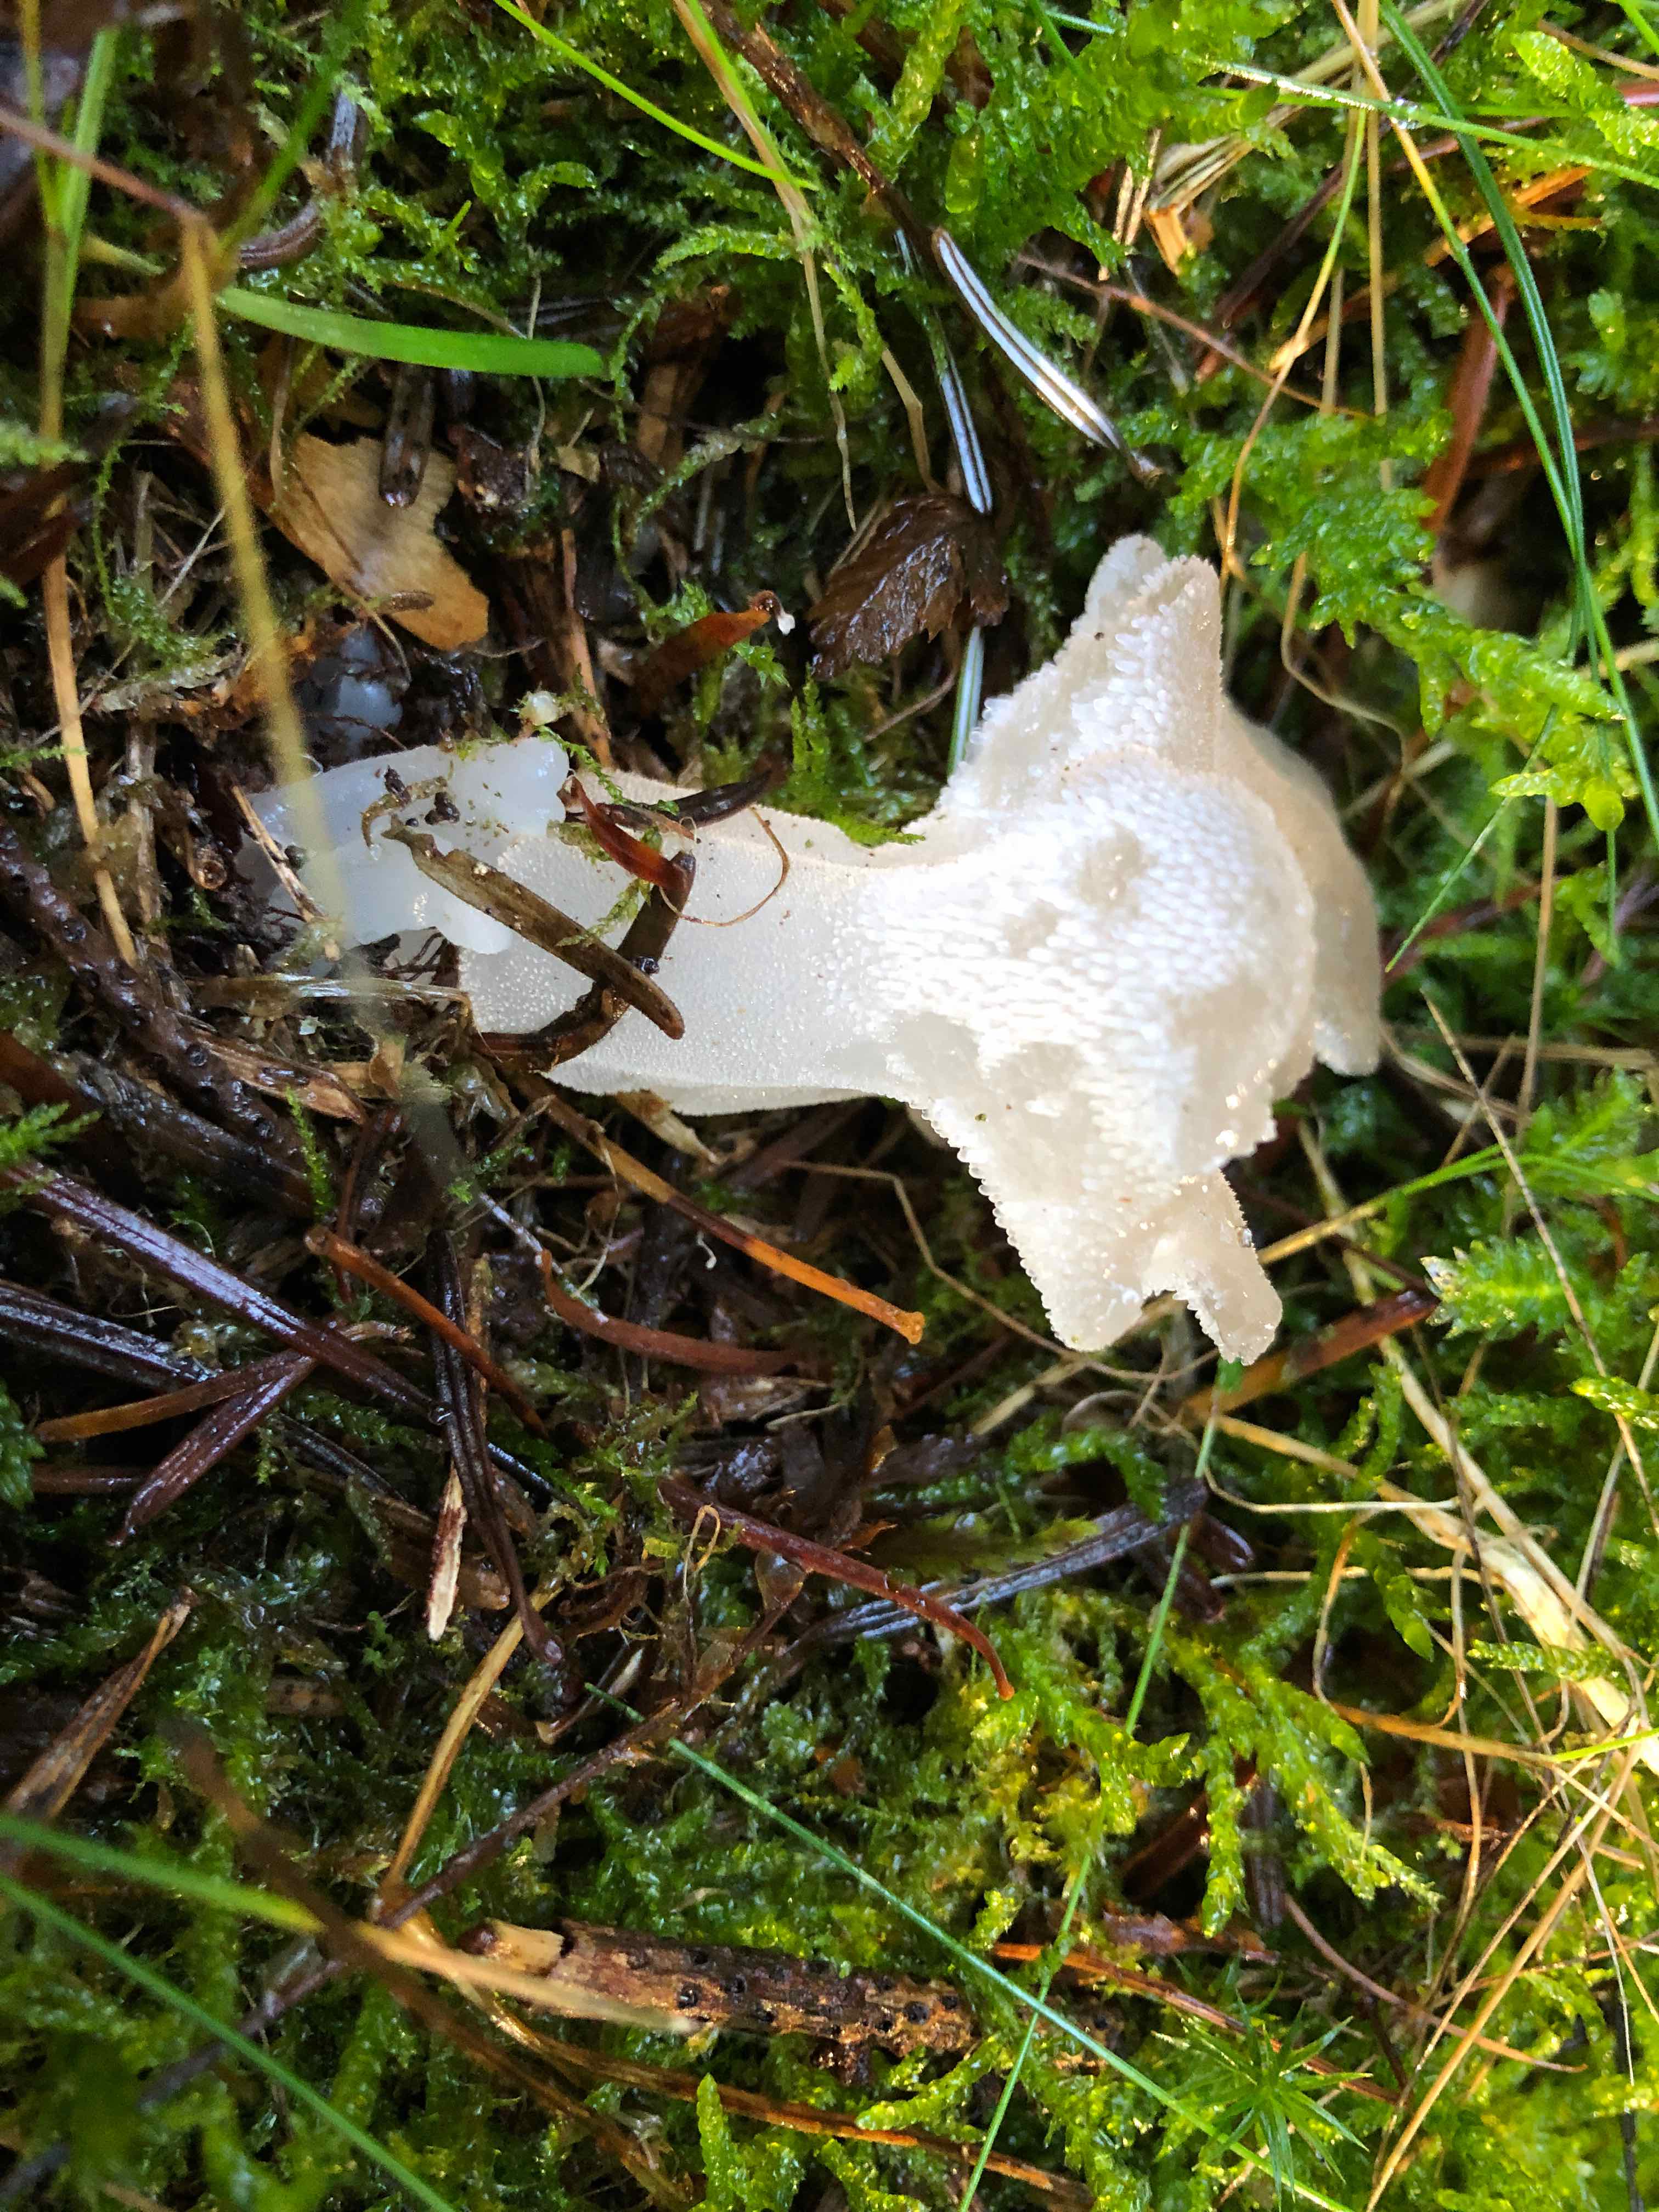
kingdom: Fungi
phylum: Basidiomycota
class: Agaricomycetes
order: Auriculariales
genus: Pseudohydnum
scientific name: Pseudohydnum gelatinosum
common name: bævretand
